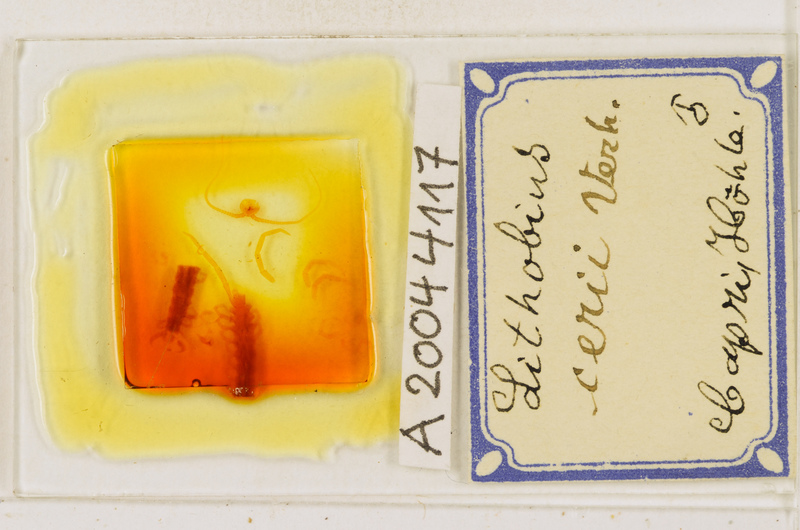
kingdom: Animalia
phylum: Arthropoda
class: Chilopoda
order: Lithobiomorpha
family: Lithobiidae
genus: Lithobius
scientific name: Lithobius cerii
